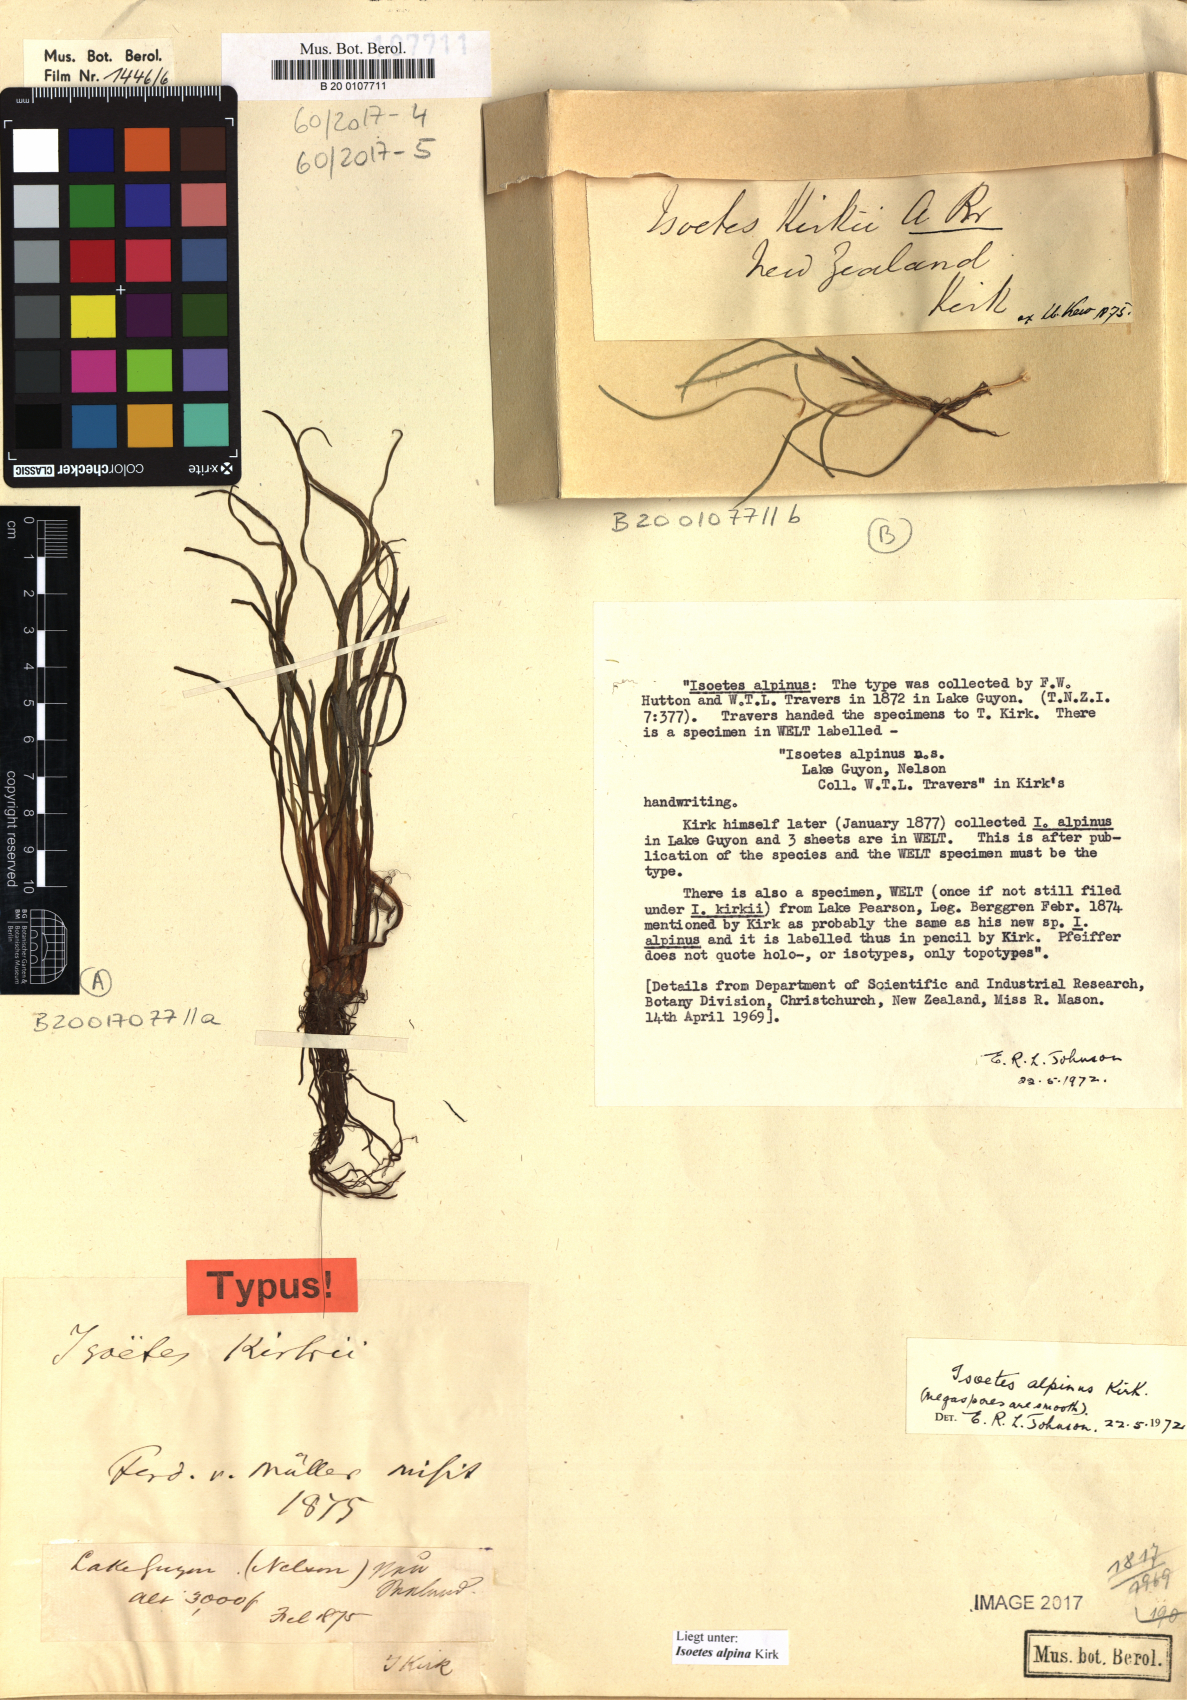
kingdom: Plantae
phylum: Tracheophyta
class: Lycopodiopsida
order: Isoetales
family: Isoetaceae
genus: Isoetes
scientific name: Isoetes alpina
